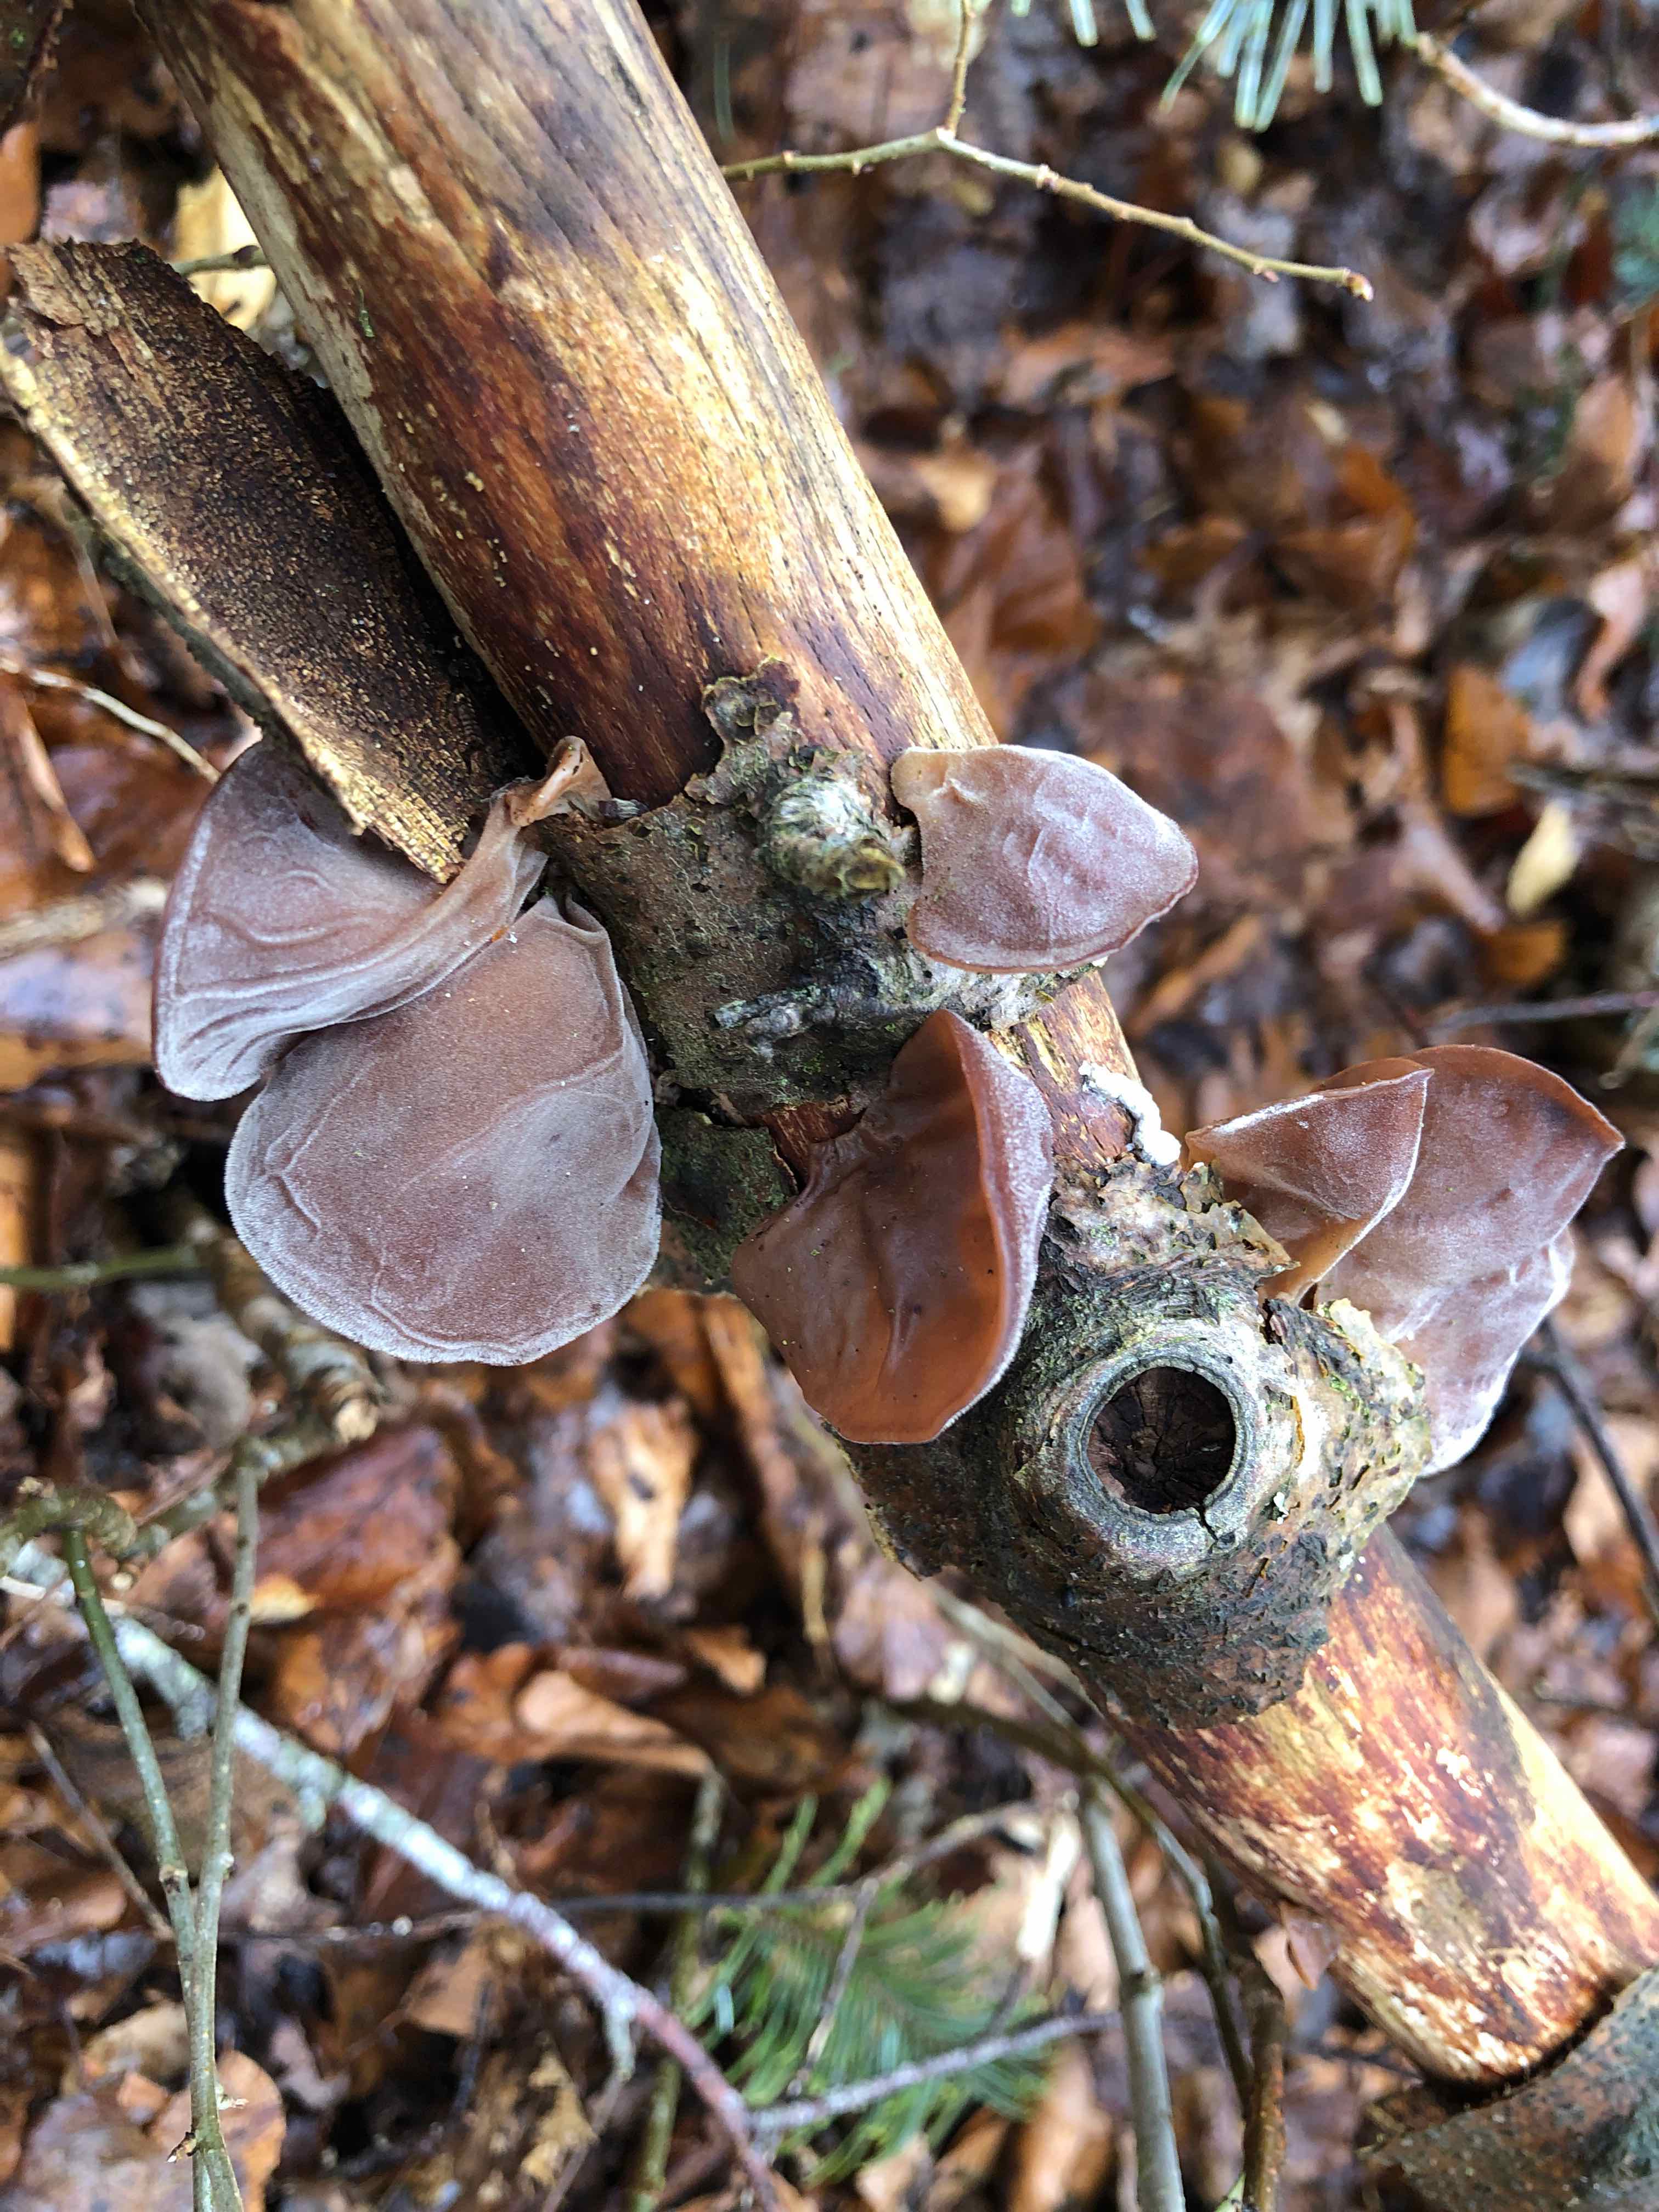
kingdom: Fungi
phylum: Basidiomycota
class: Agaricomycetes
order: Auriculariales
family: Auriculariaceae
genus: Auricularia
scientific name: Auricularia auricula-judae
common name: almindelig judasøre
